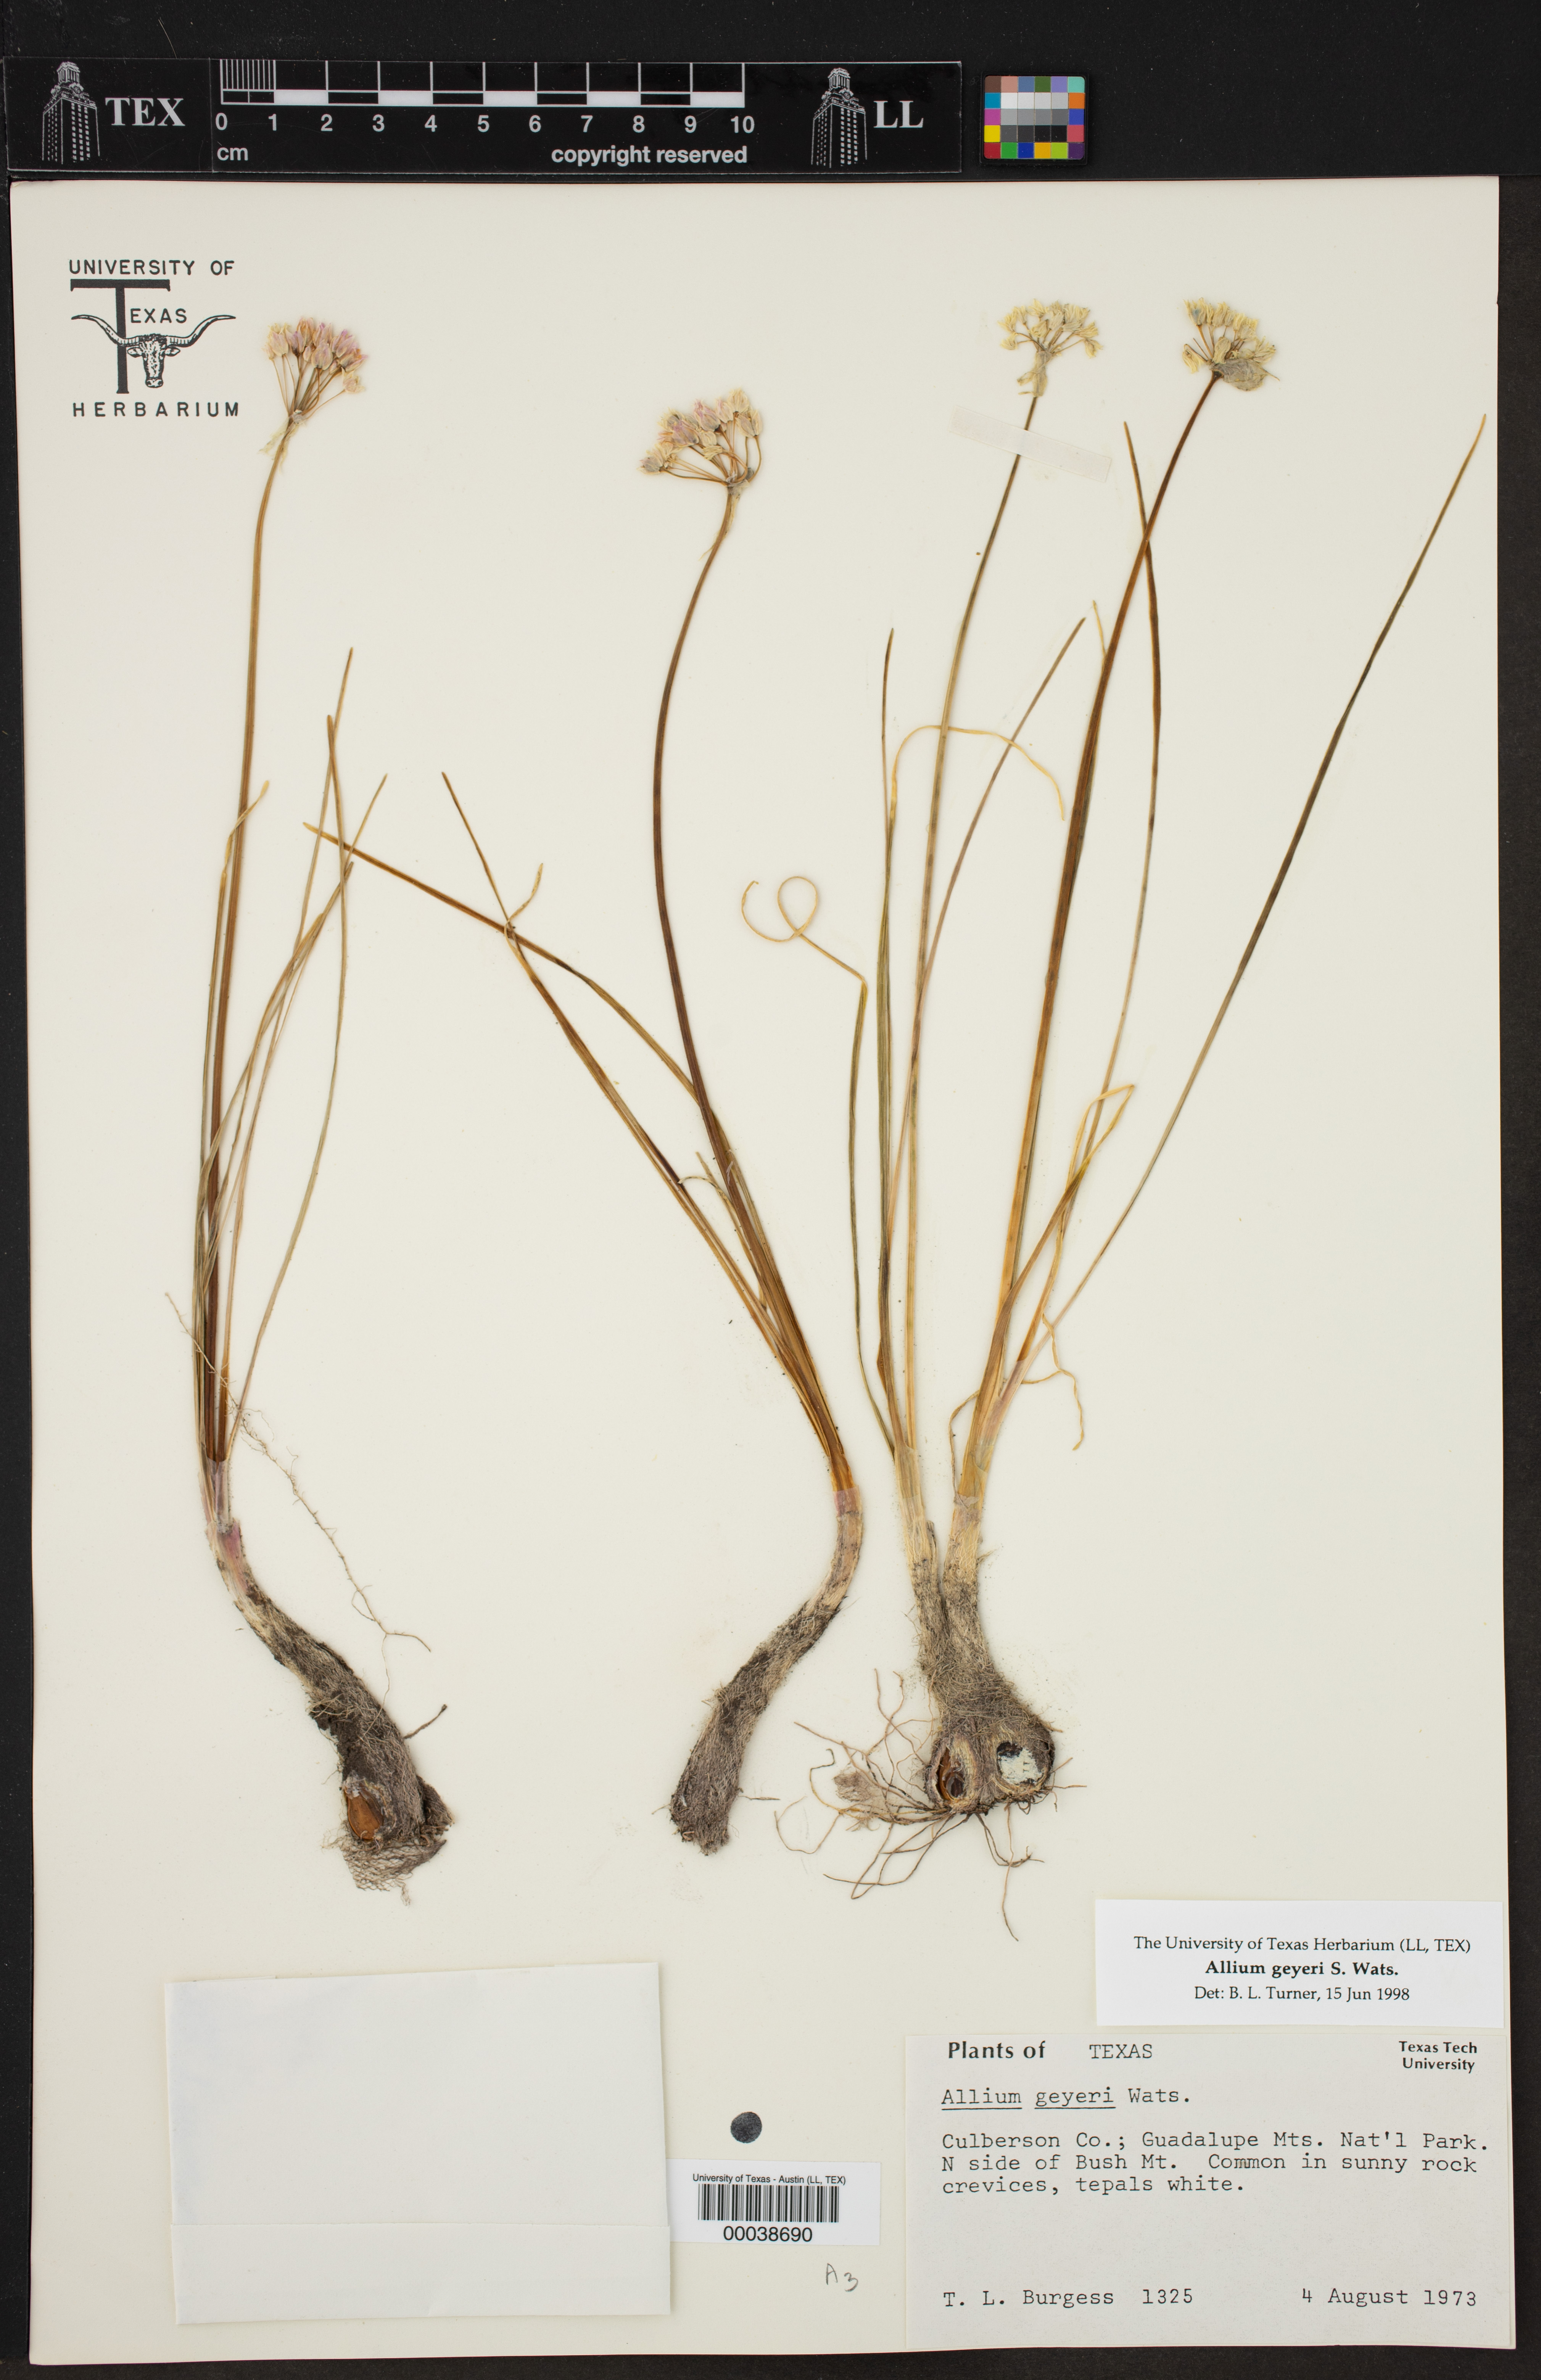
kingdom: Plantae
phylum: Tracheophyta
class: Liliopsida
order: Asparagales
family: Amaryllidaceae
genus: Allium
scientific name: Allium geyeri
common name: Geyer's onion
